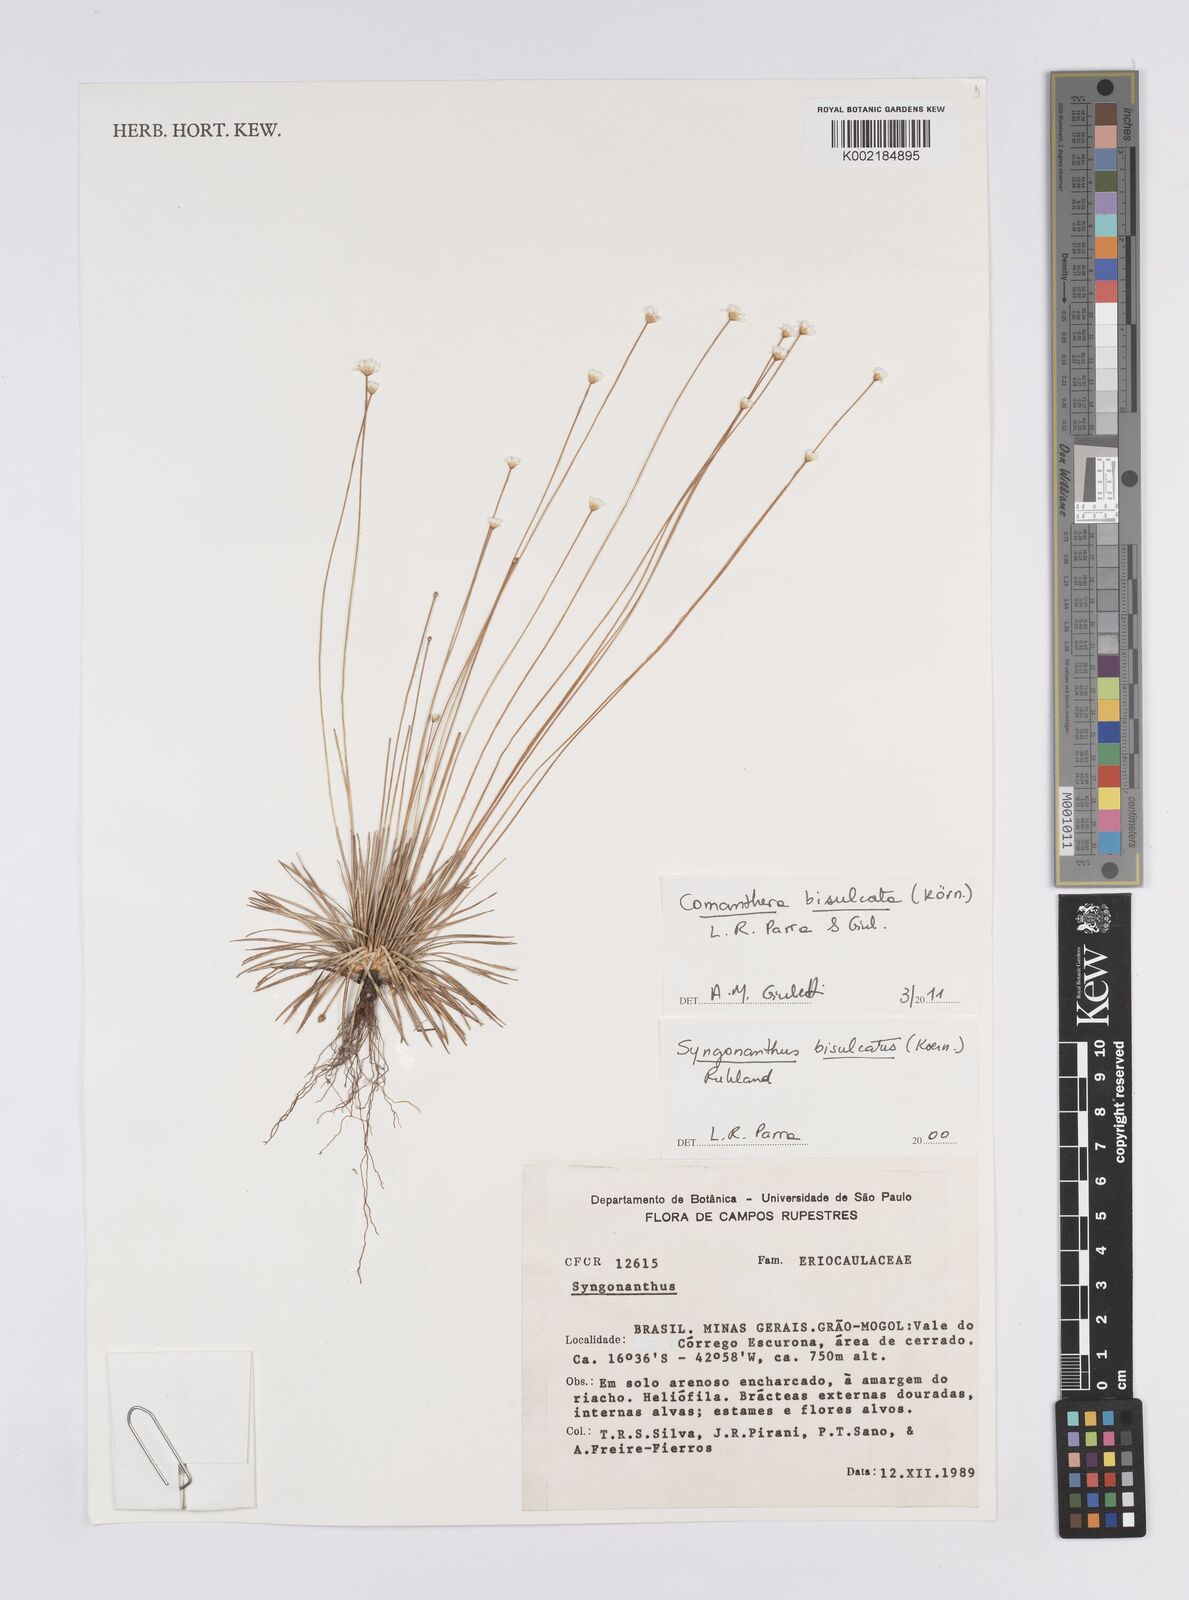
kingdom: Plantae
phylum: Tracheophyta
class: Liliopsida
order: Poales
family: Eriocaulaceae
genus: Comanthera
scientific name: Comanthera bisulcata
